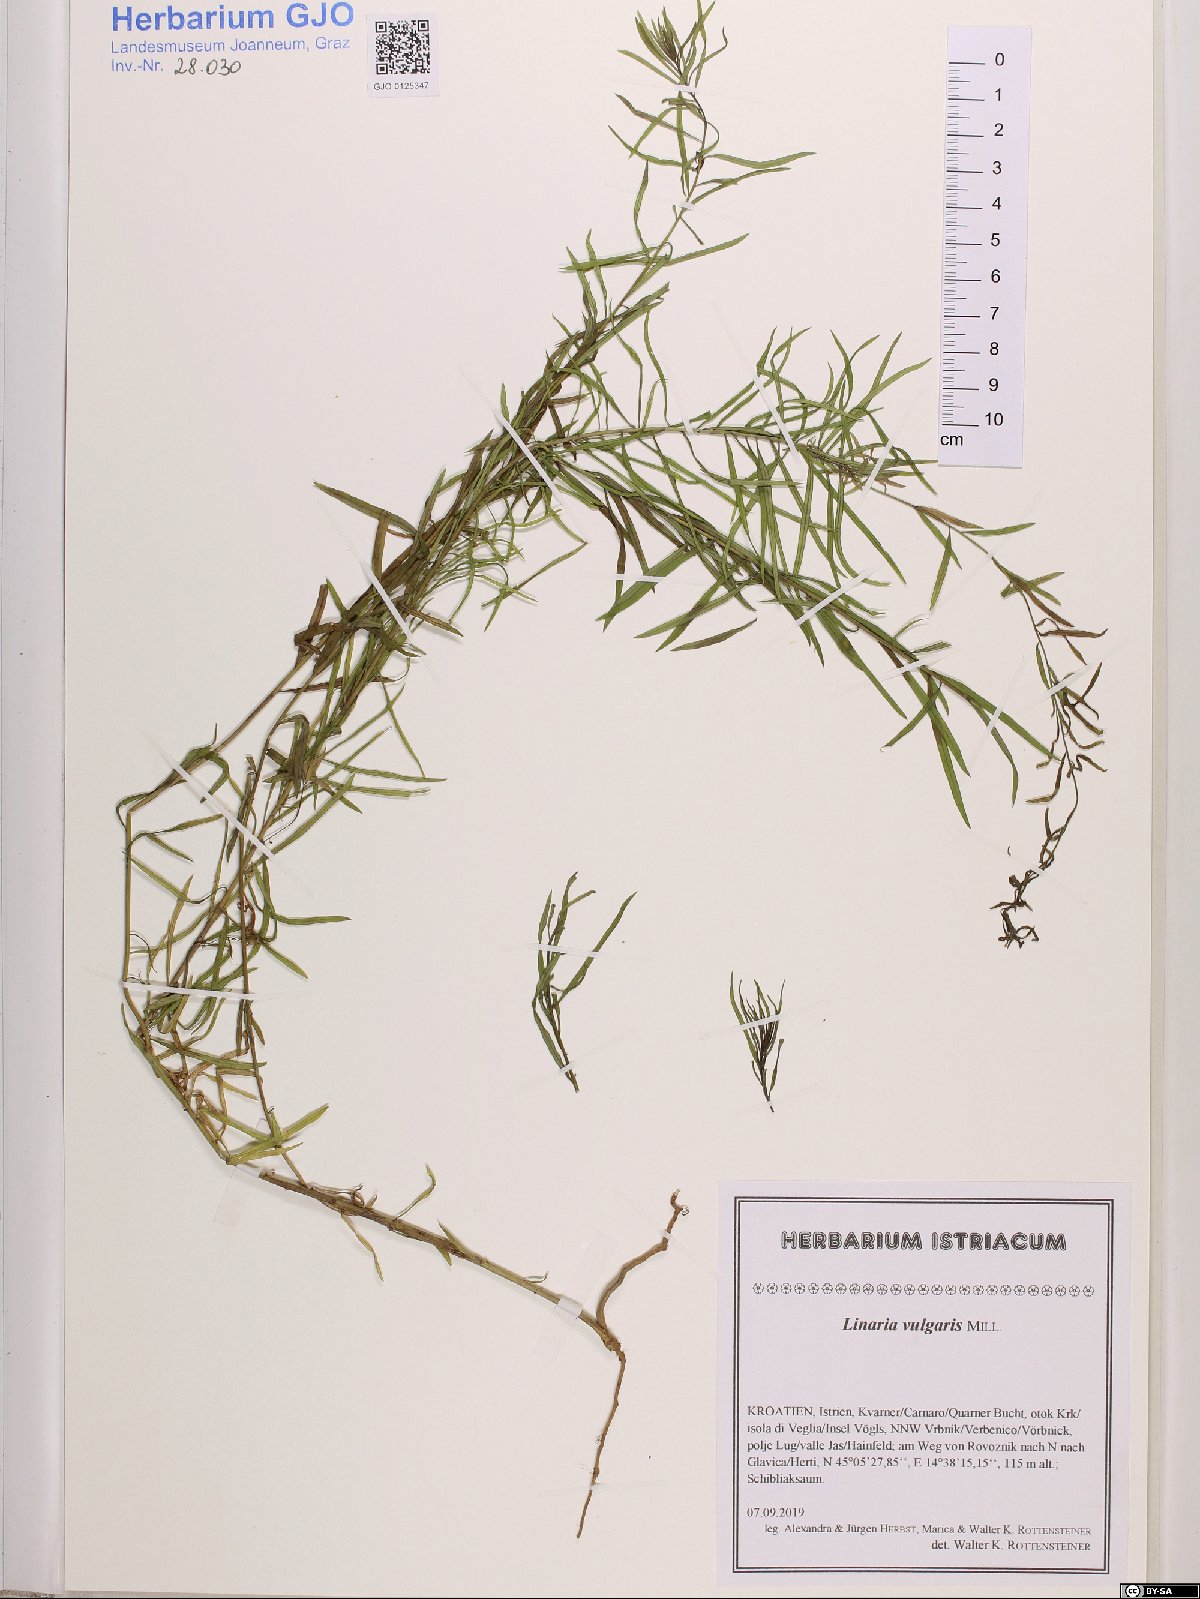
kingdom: Plantae
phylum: Tracheophyta
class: Magnoliopsida
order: Lamiales
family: Plantaginaceae
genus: Linaria
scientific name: Linaria vulgaris
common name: Butter and eggs
